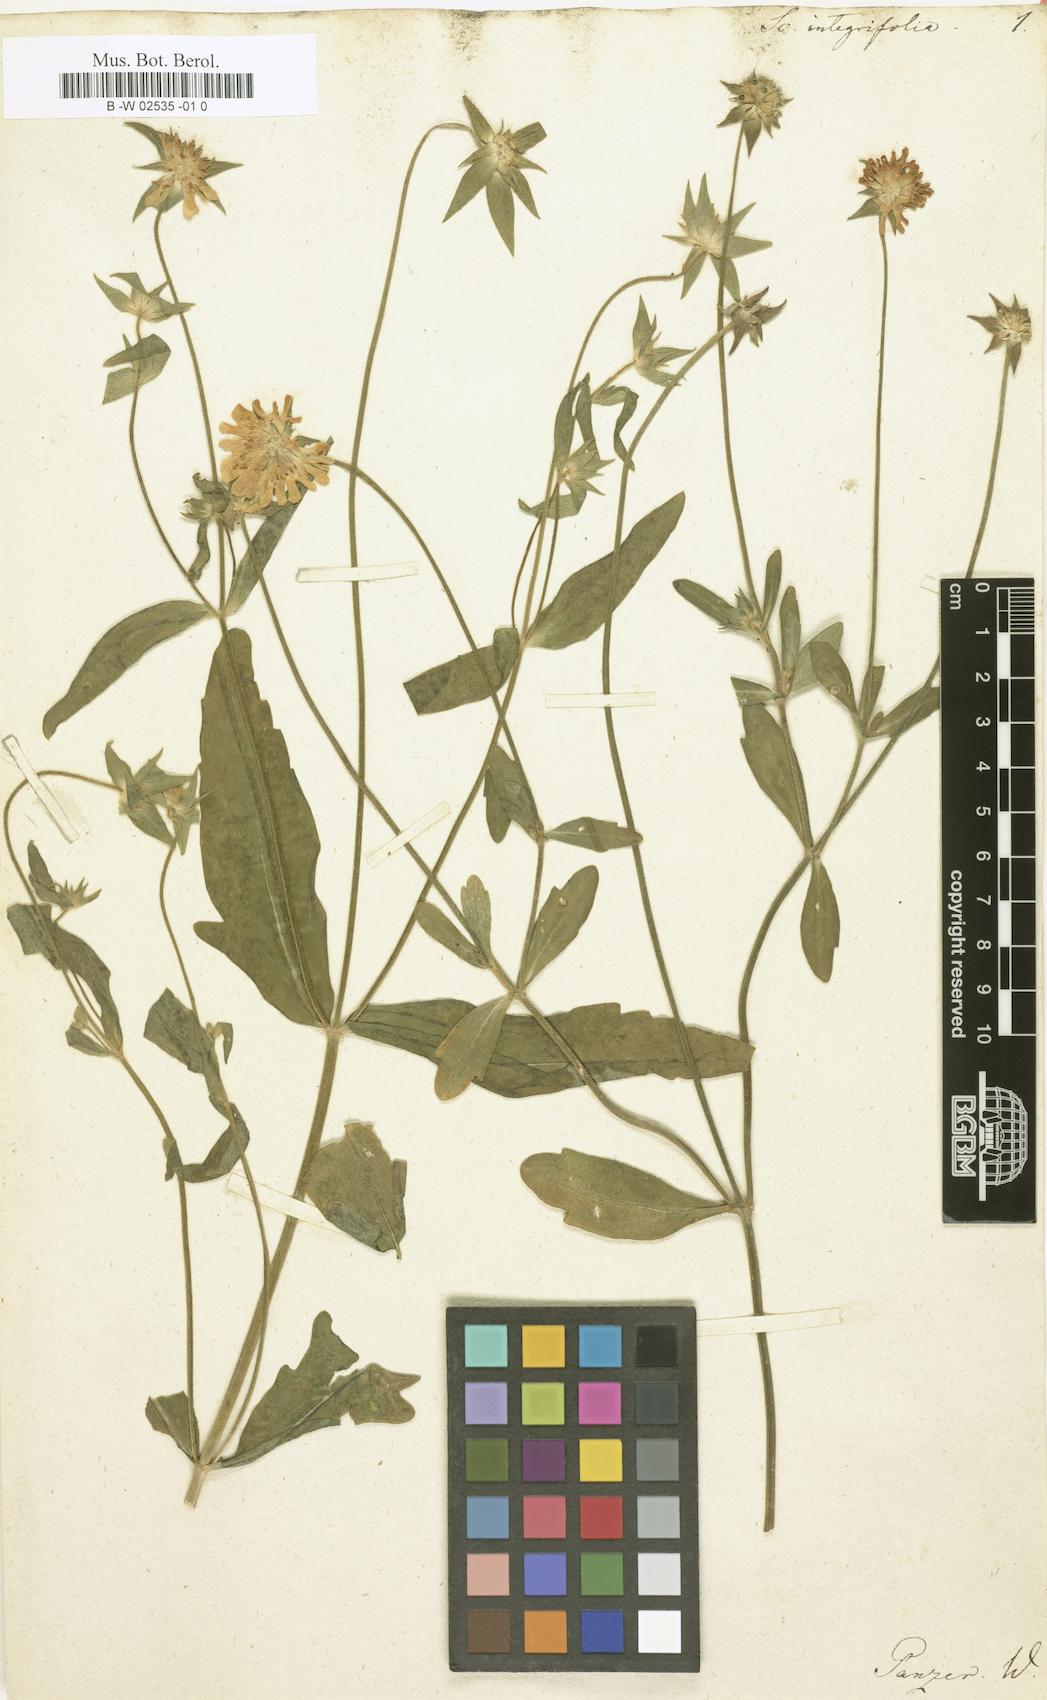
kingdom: Plantae
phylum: Tracheophyta
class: Magnoliopsida
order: Dipsacales
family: Caprifoliaceae
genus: Knautia
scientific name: Knautia integrifolia
